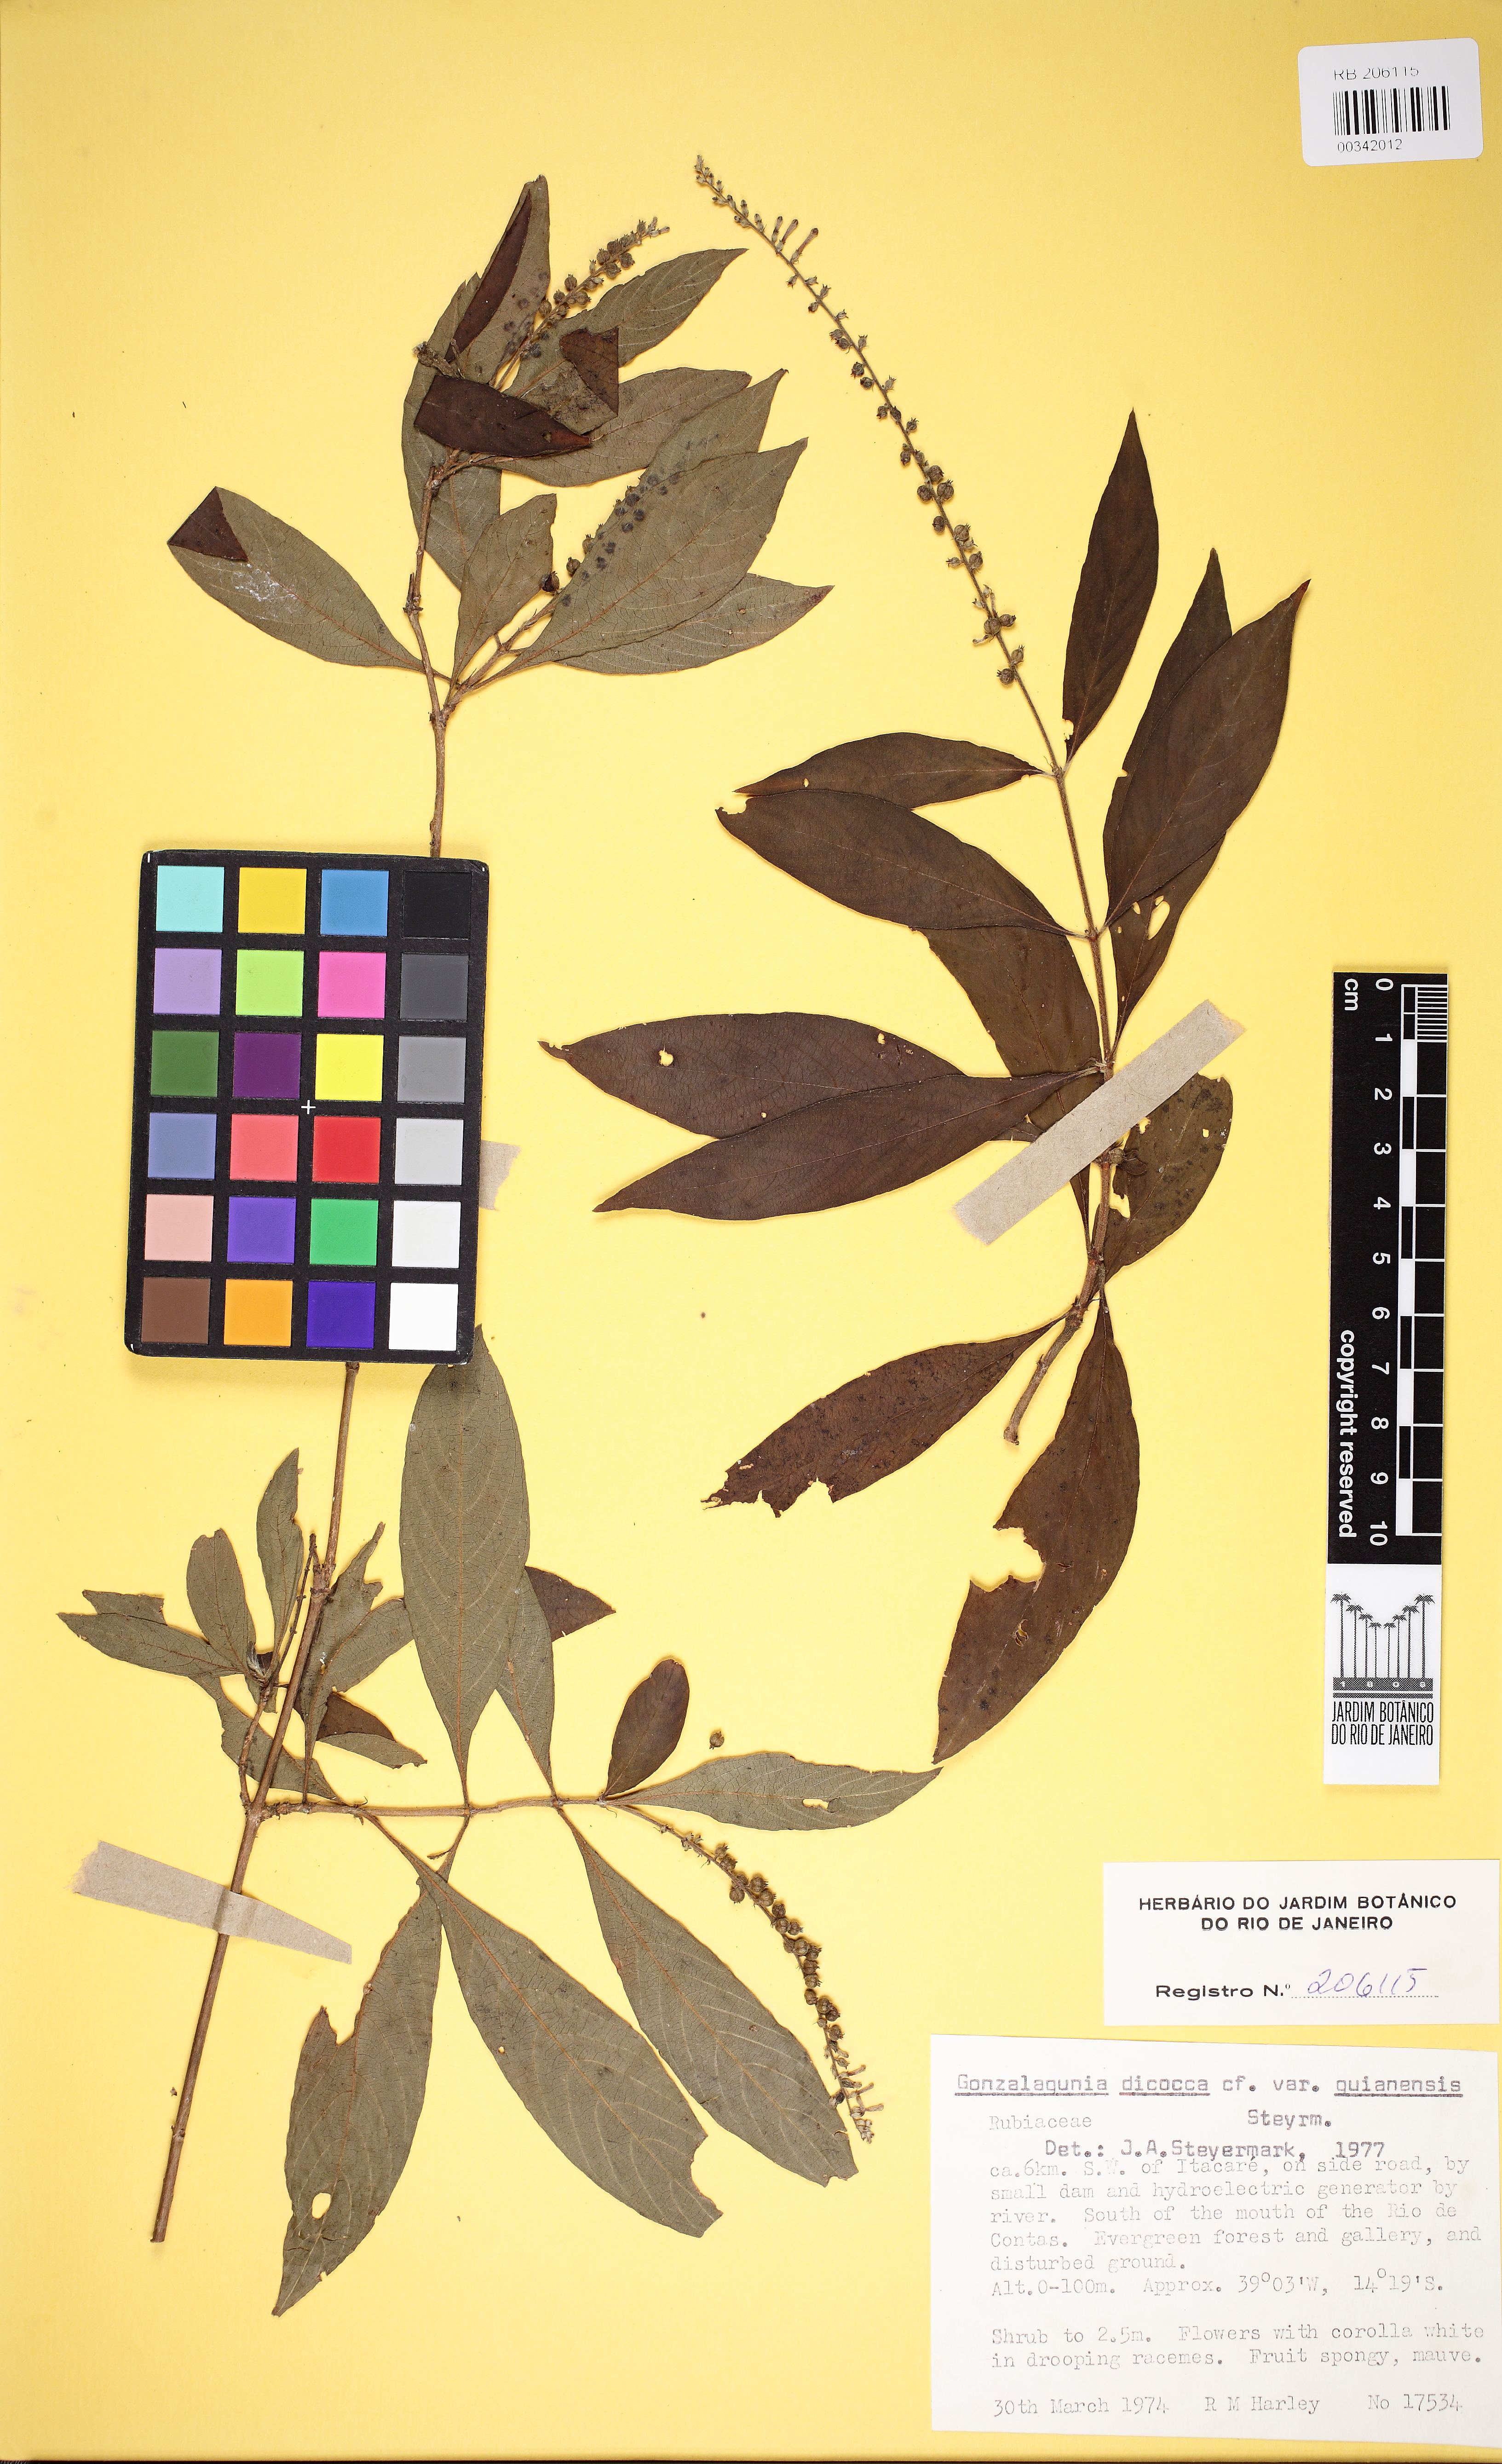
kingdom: Plantae
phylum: Tracheophyta
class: Magnoliopsida
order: Gentianales
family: Rubiaceae
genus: Gonzalagunia
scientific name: Gonzalagunia surinamensis
